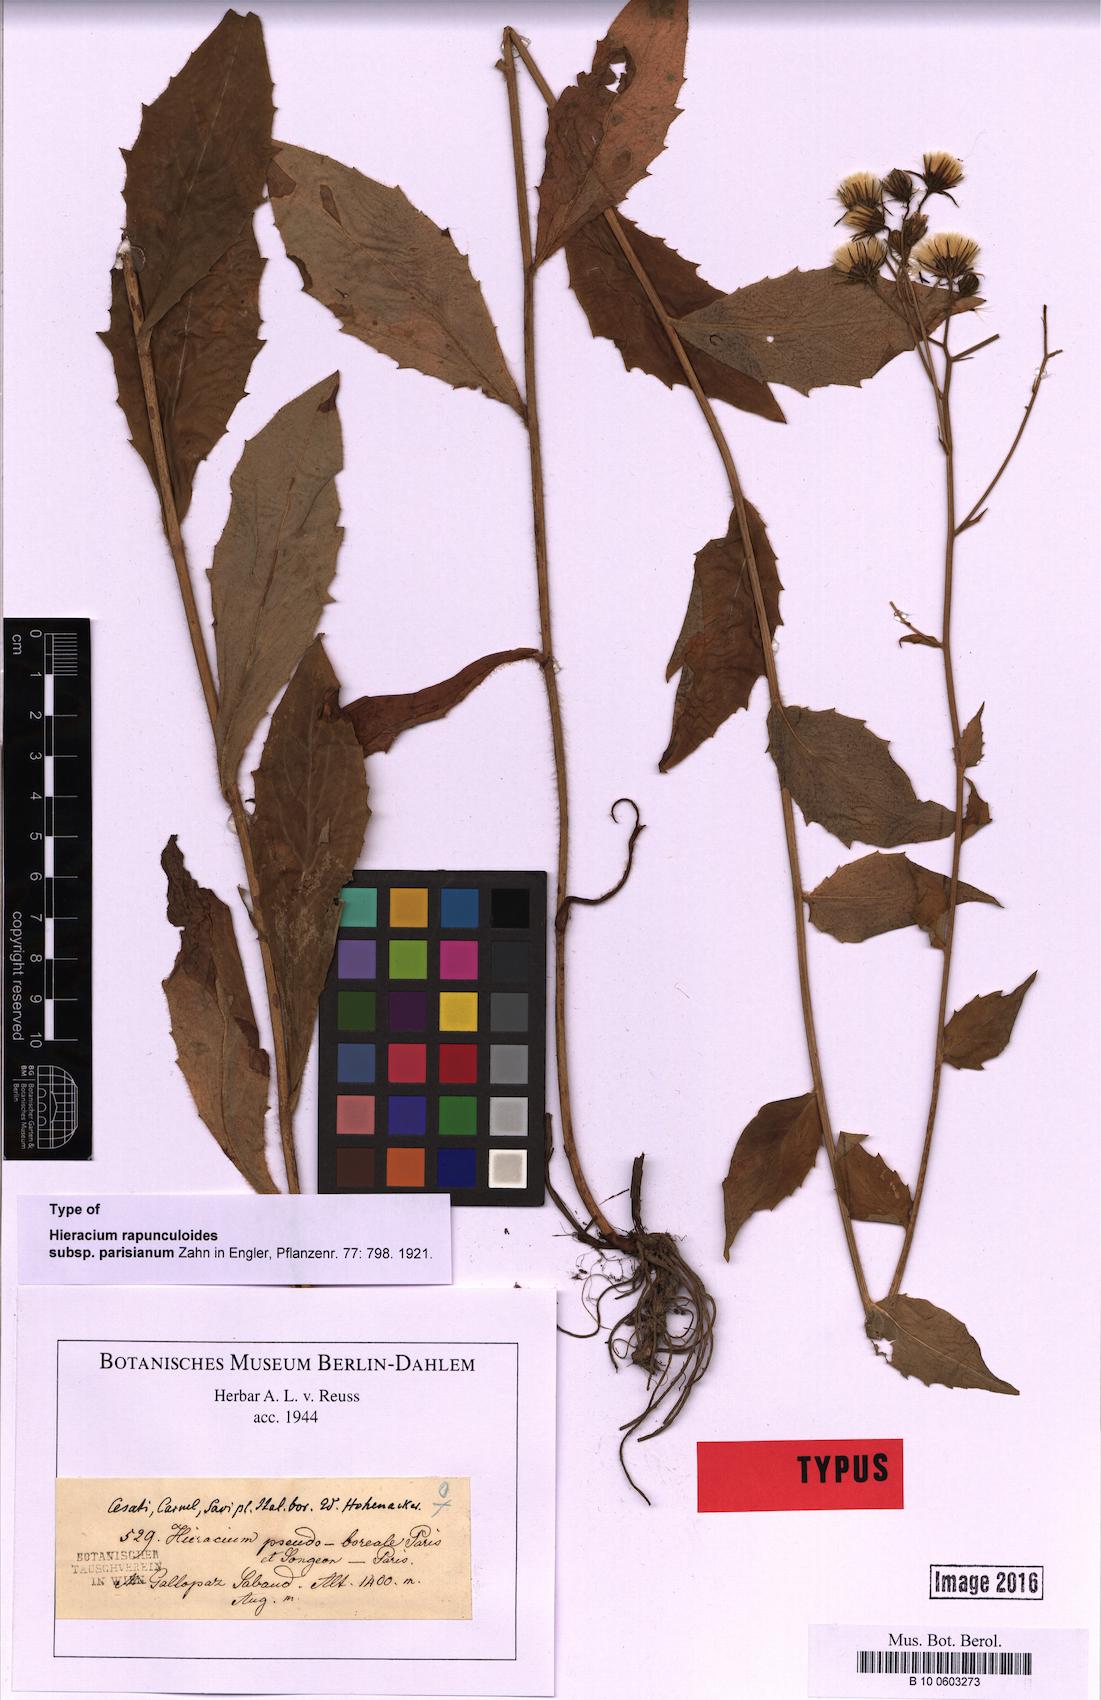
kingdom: Plantae
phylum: Tracheophyta
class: Magnoliopsida
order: Asterales
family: Asteraceae
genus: Hieracium
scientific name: Hieracium rapunculoides
